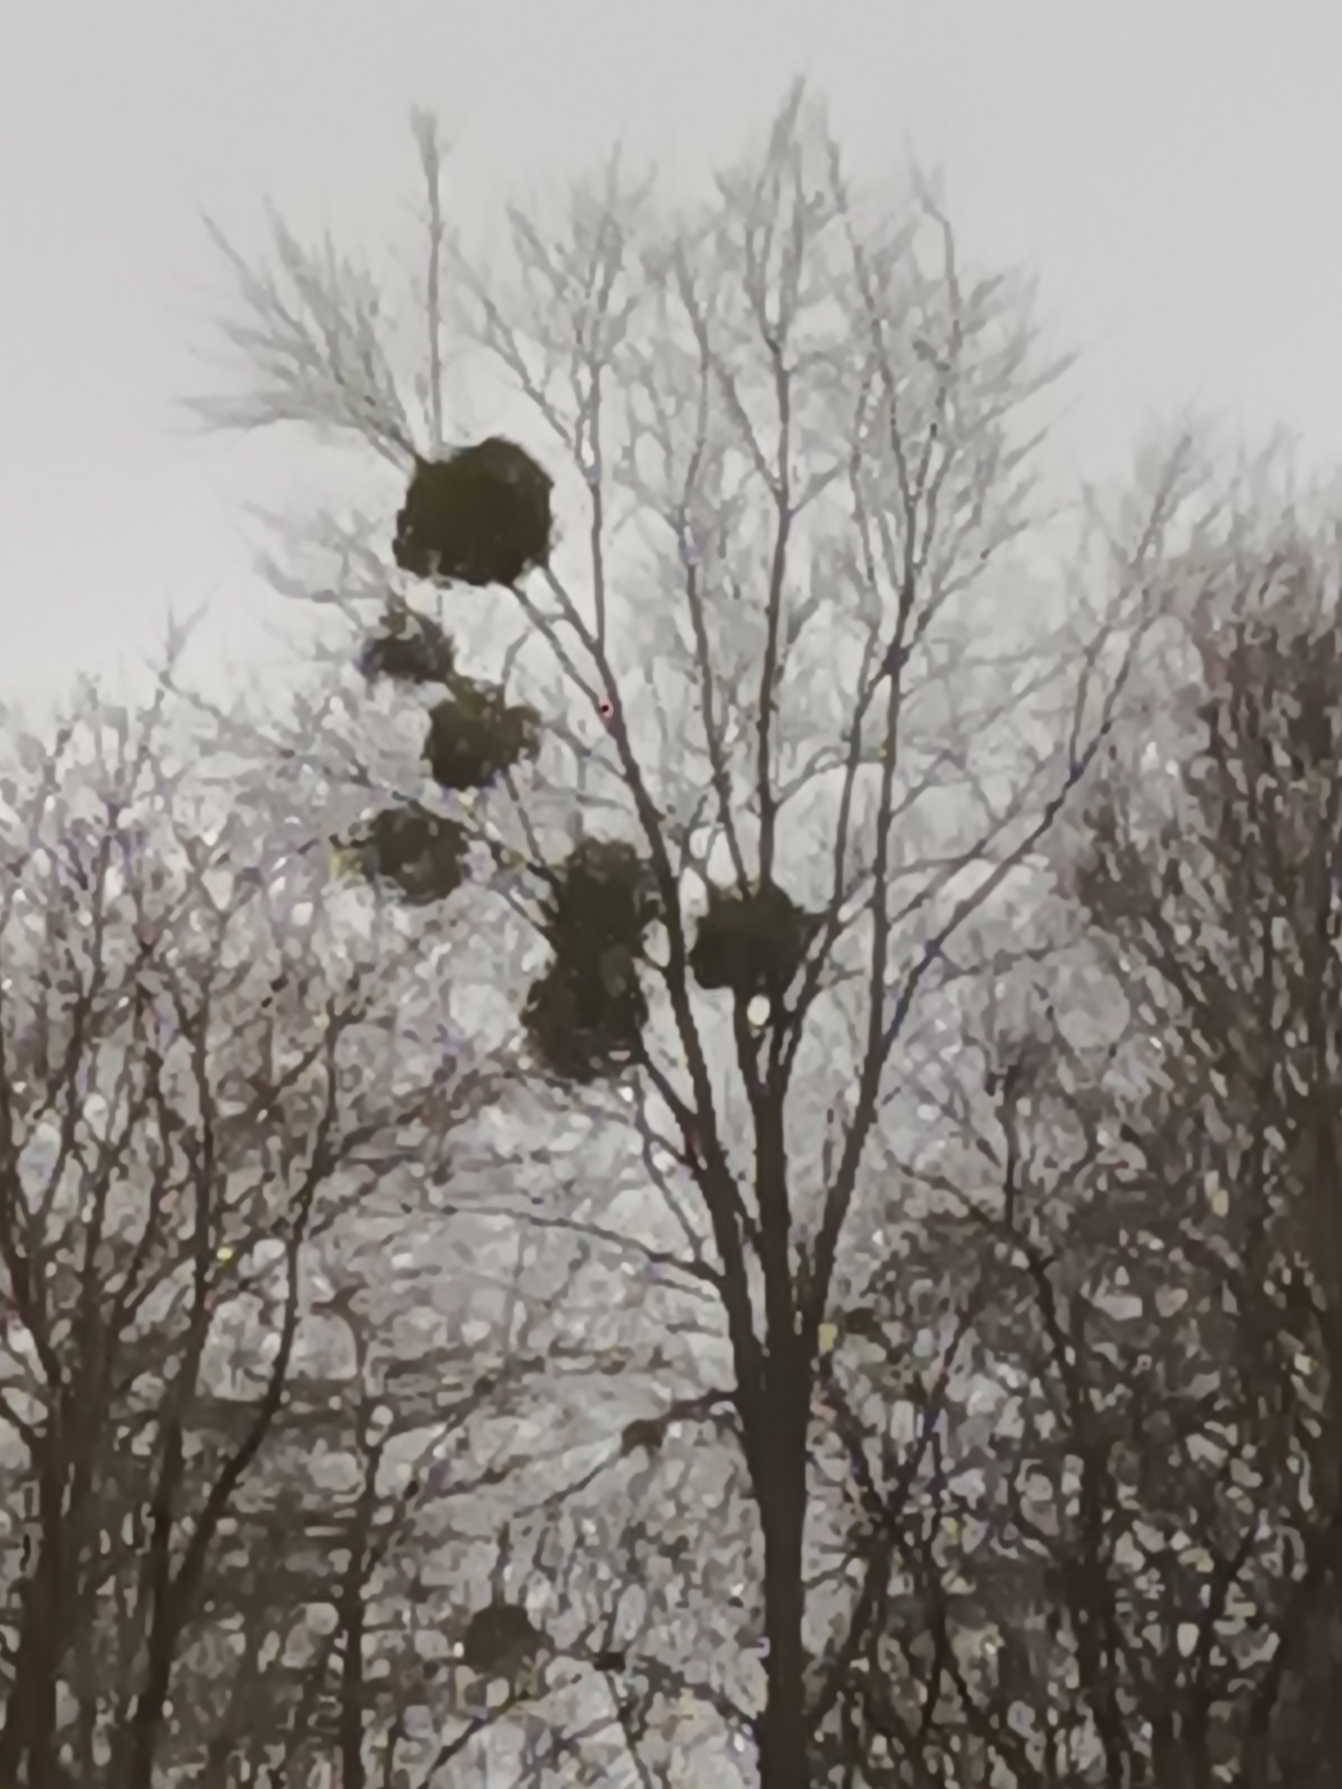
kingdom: Plantae
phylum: Tracheophyta
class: Magnoliopsida
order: Santalales
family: Viscaceae
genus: Viscum
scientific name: Viscum album
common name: Mistelten
